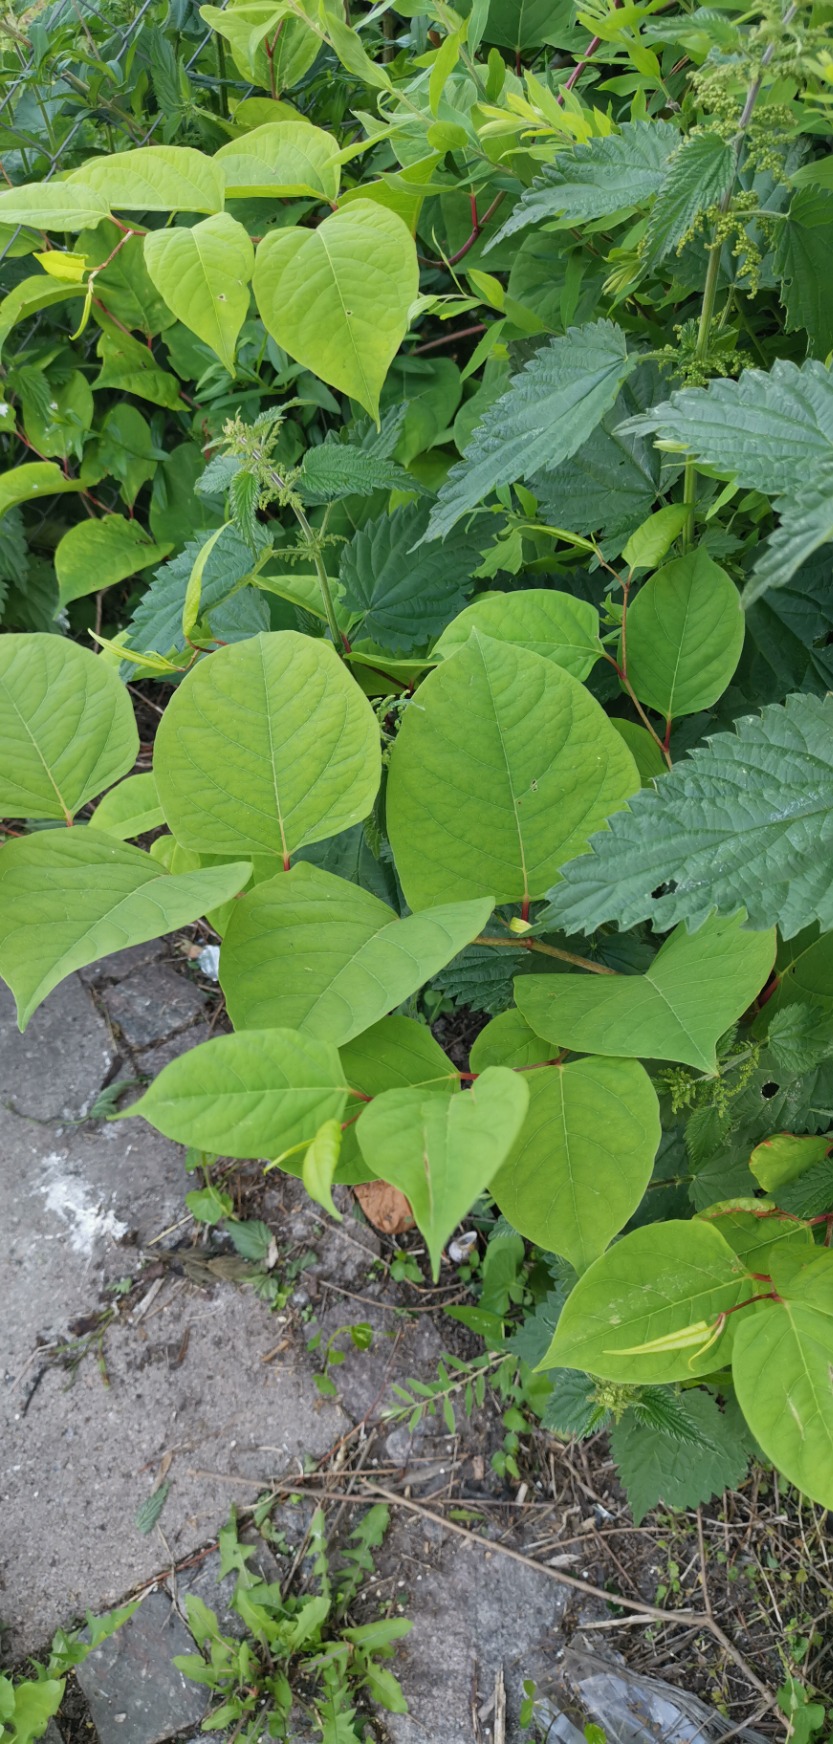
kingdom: Plantae
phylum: Tracheophyta
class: Magnoliopsida
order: Caryophyllales
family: Polygonaceae
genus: Reynoutria
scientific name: Reynoutria japonica
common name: Japan-pileurt
